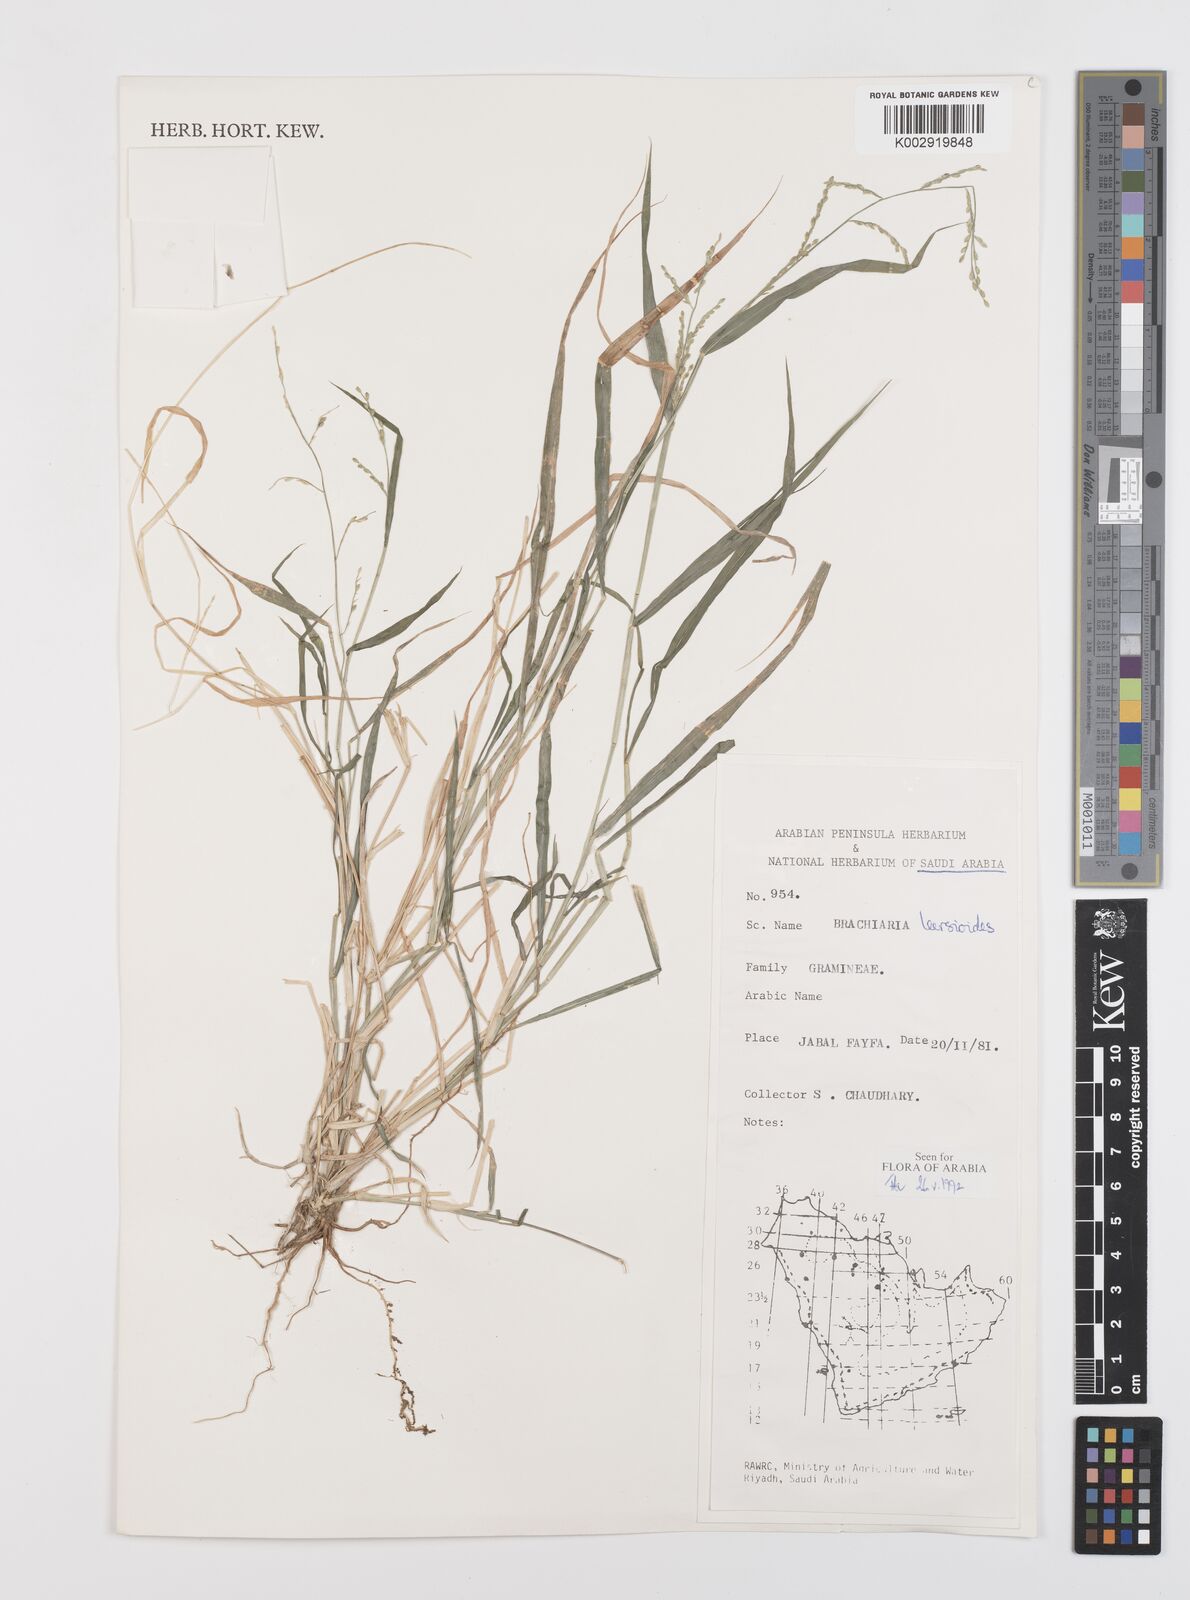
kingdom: Plantae
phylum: Tracheophyta
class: Liliopsida
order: Poales
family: Poaceae
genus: Urochloa
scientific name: Urochloa leersioides
